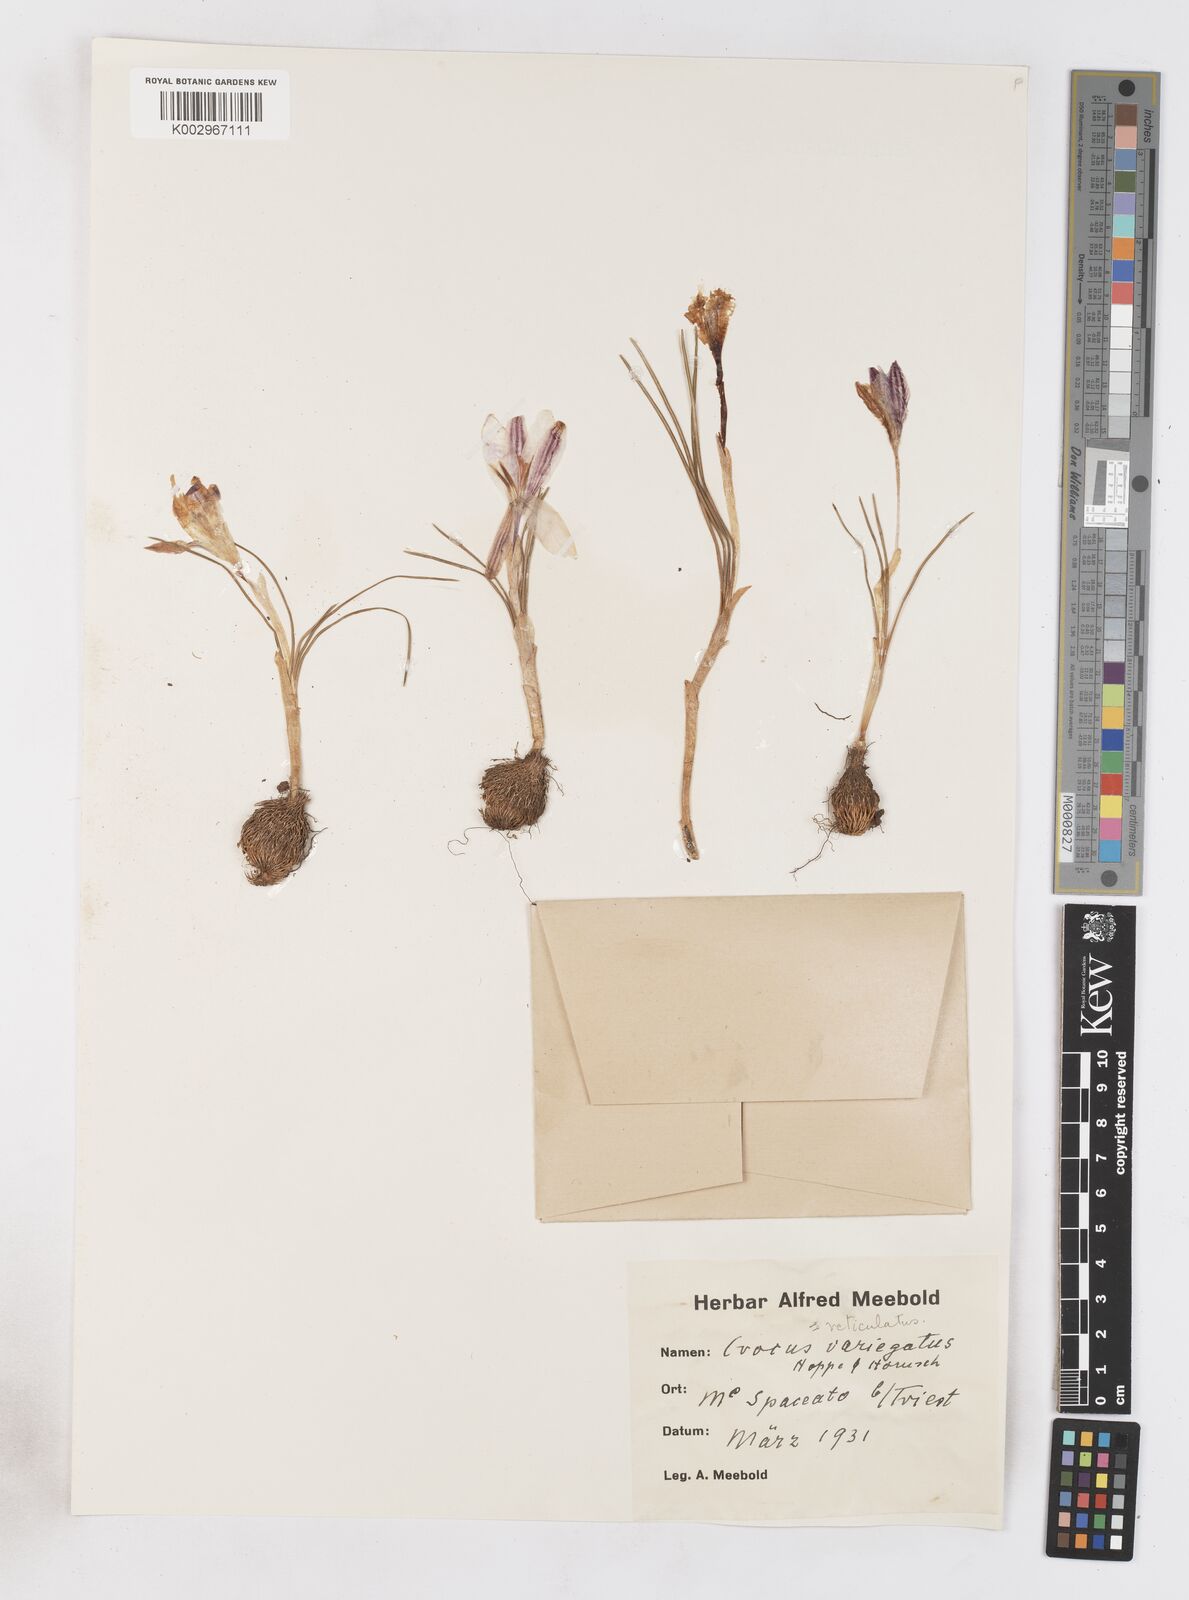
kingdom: Plantae
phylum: Tracheophyta
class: Liliopsida
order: Asparagales
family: Iridaceae
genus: Crocus
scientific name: Crocus reticulatus
